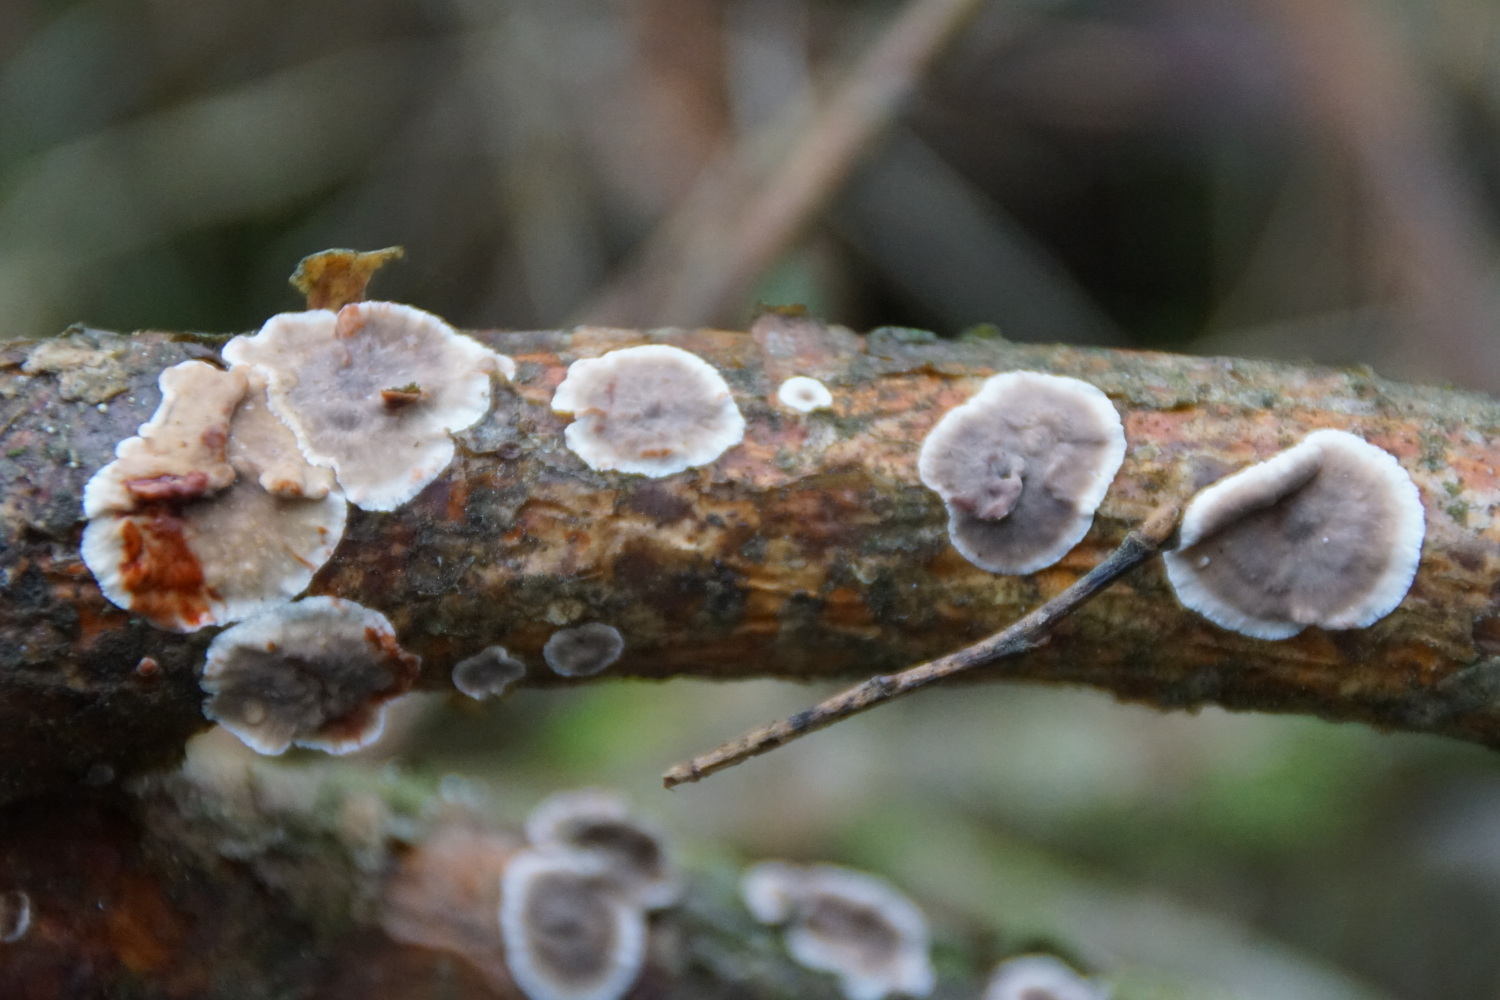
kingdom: Fungi
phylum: Basidiomycota
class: Agaricomycetes
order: Russulales
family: Stereaceae
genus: Stereum
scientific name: Stereum sanguinolentum
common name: blødende lædersvamp
